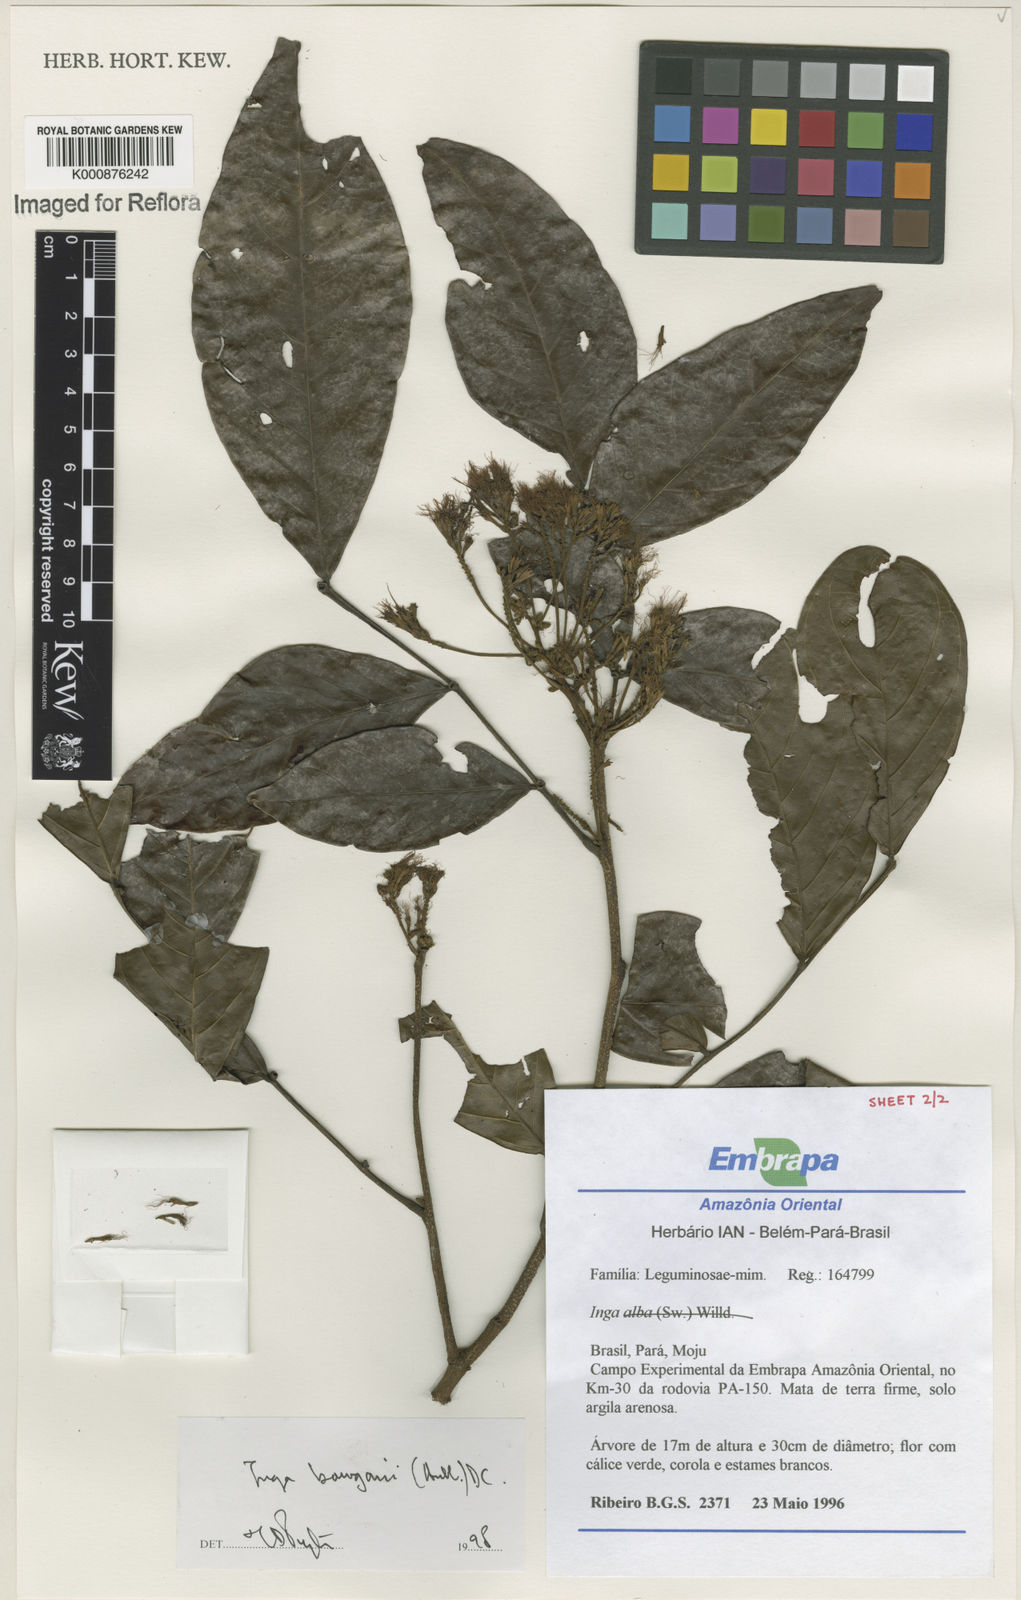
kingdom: Plantae
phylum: Tracheophyta
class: Magnoliopsida
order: Fabales
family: Fabaceae
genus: Inga
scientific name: Inga bourgoni
